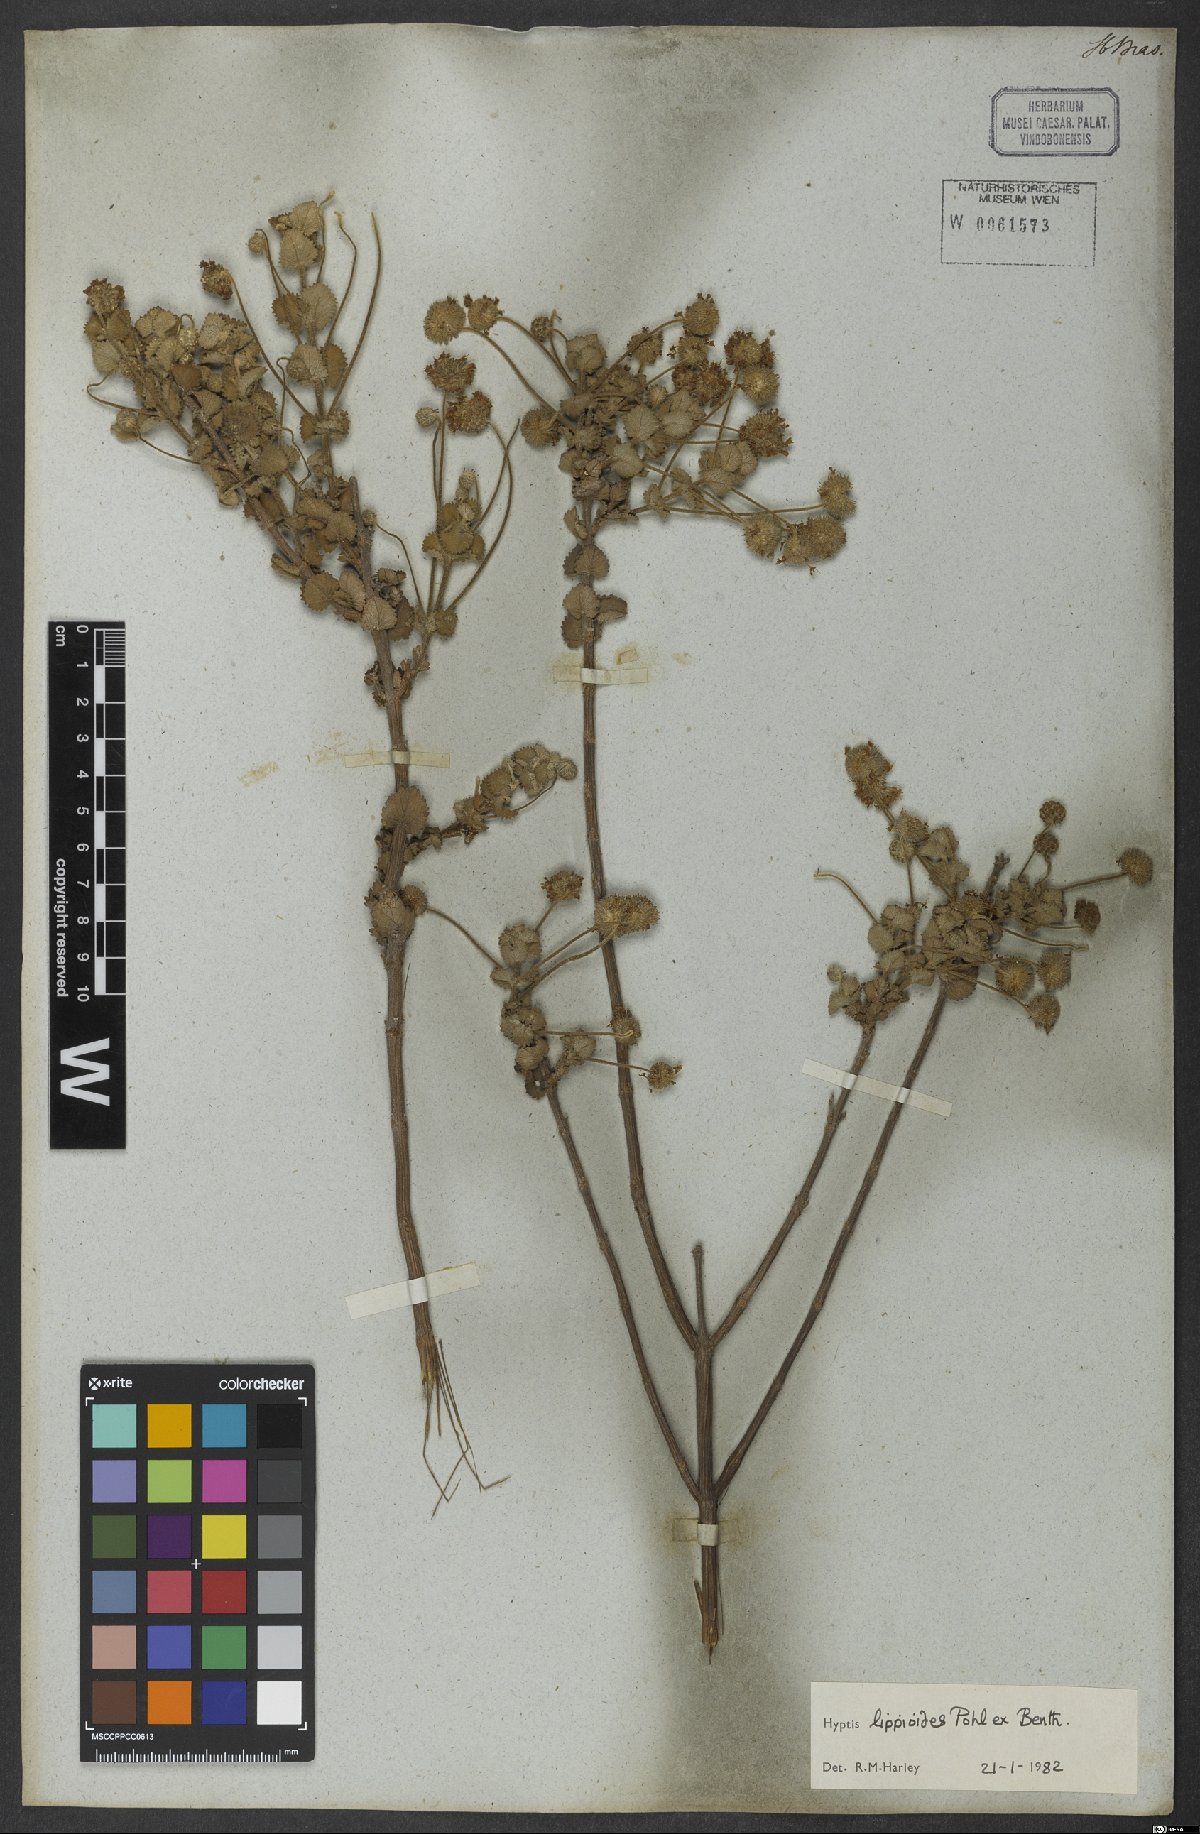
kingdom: Plantae
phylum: Tracheophyta
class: Magnoliopsida
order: Lamiales
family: Lamiaceae
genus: Cyanocephalus
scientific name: Cyanocephalus lippioides
